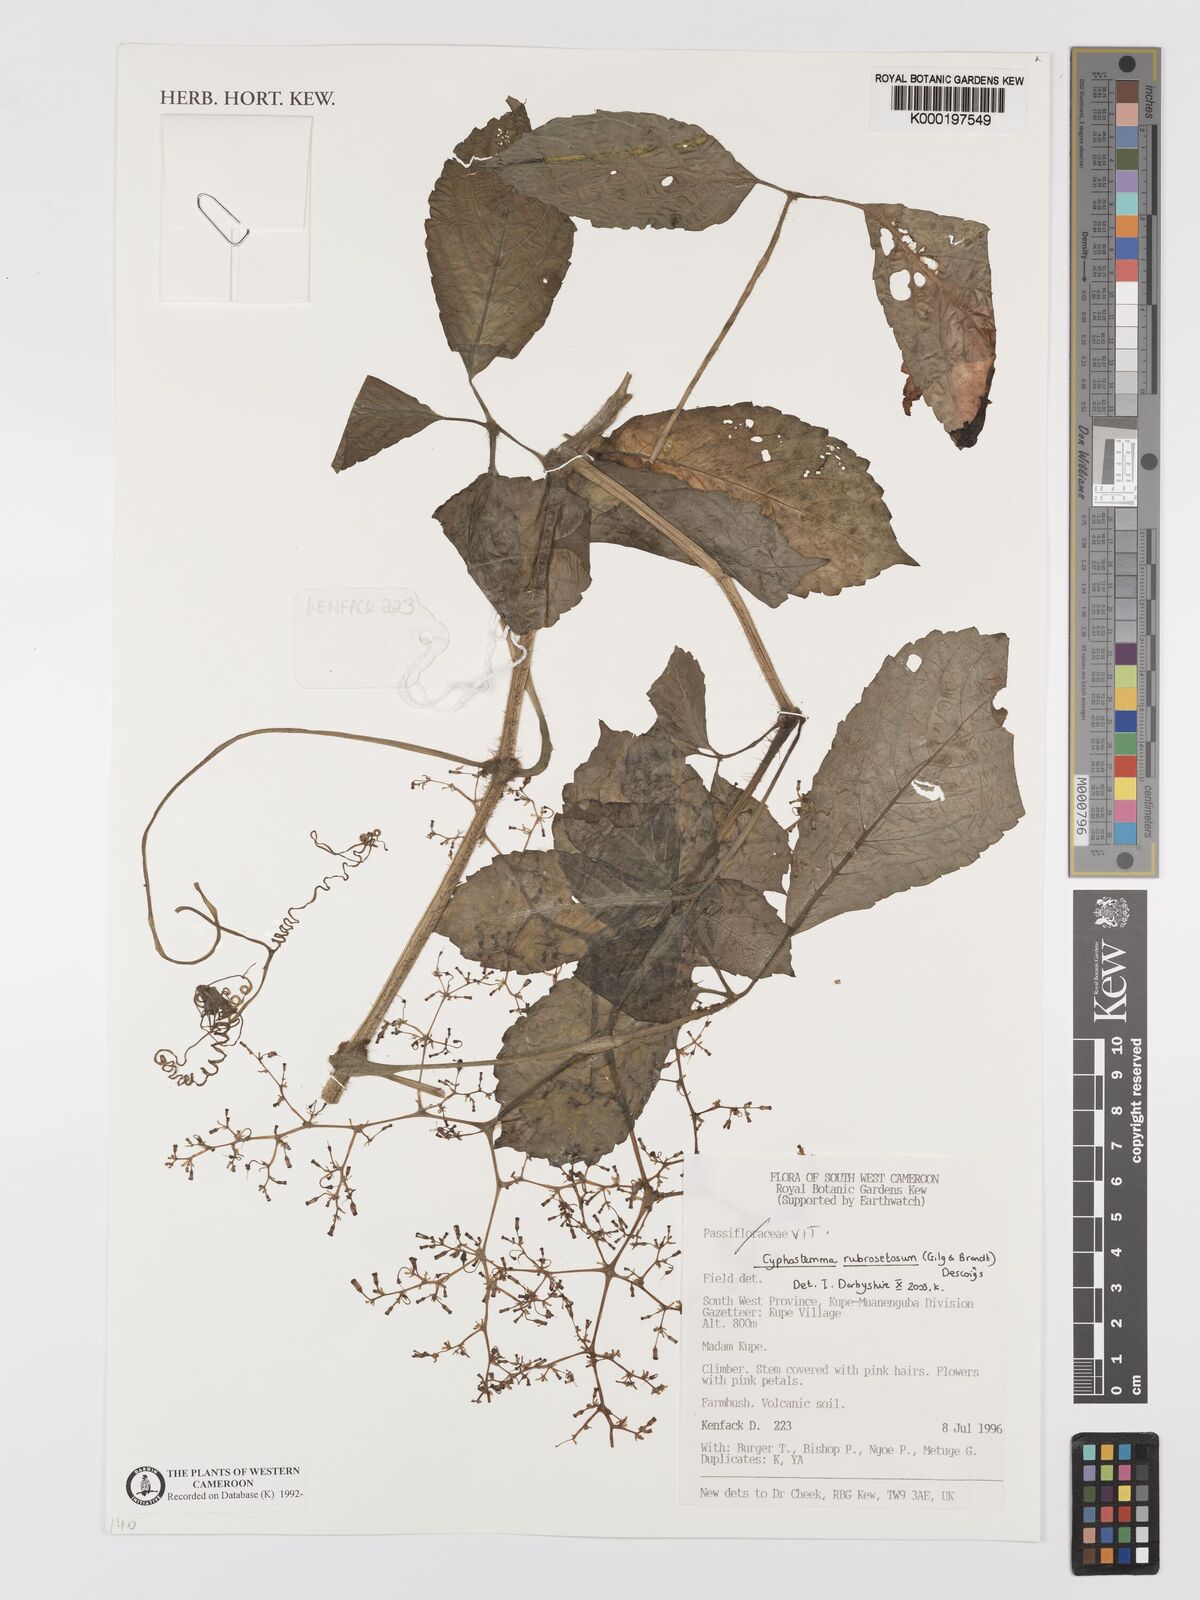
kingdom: Plantae
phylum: Tracheophyta
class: Magnoliopsida
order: Vitales
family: Vitaceae
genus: Cyphostemma
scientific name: Cyphostemma rubrosetosum
